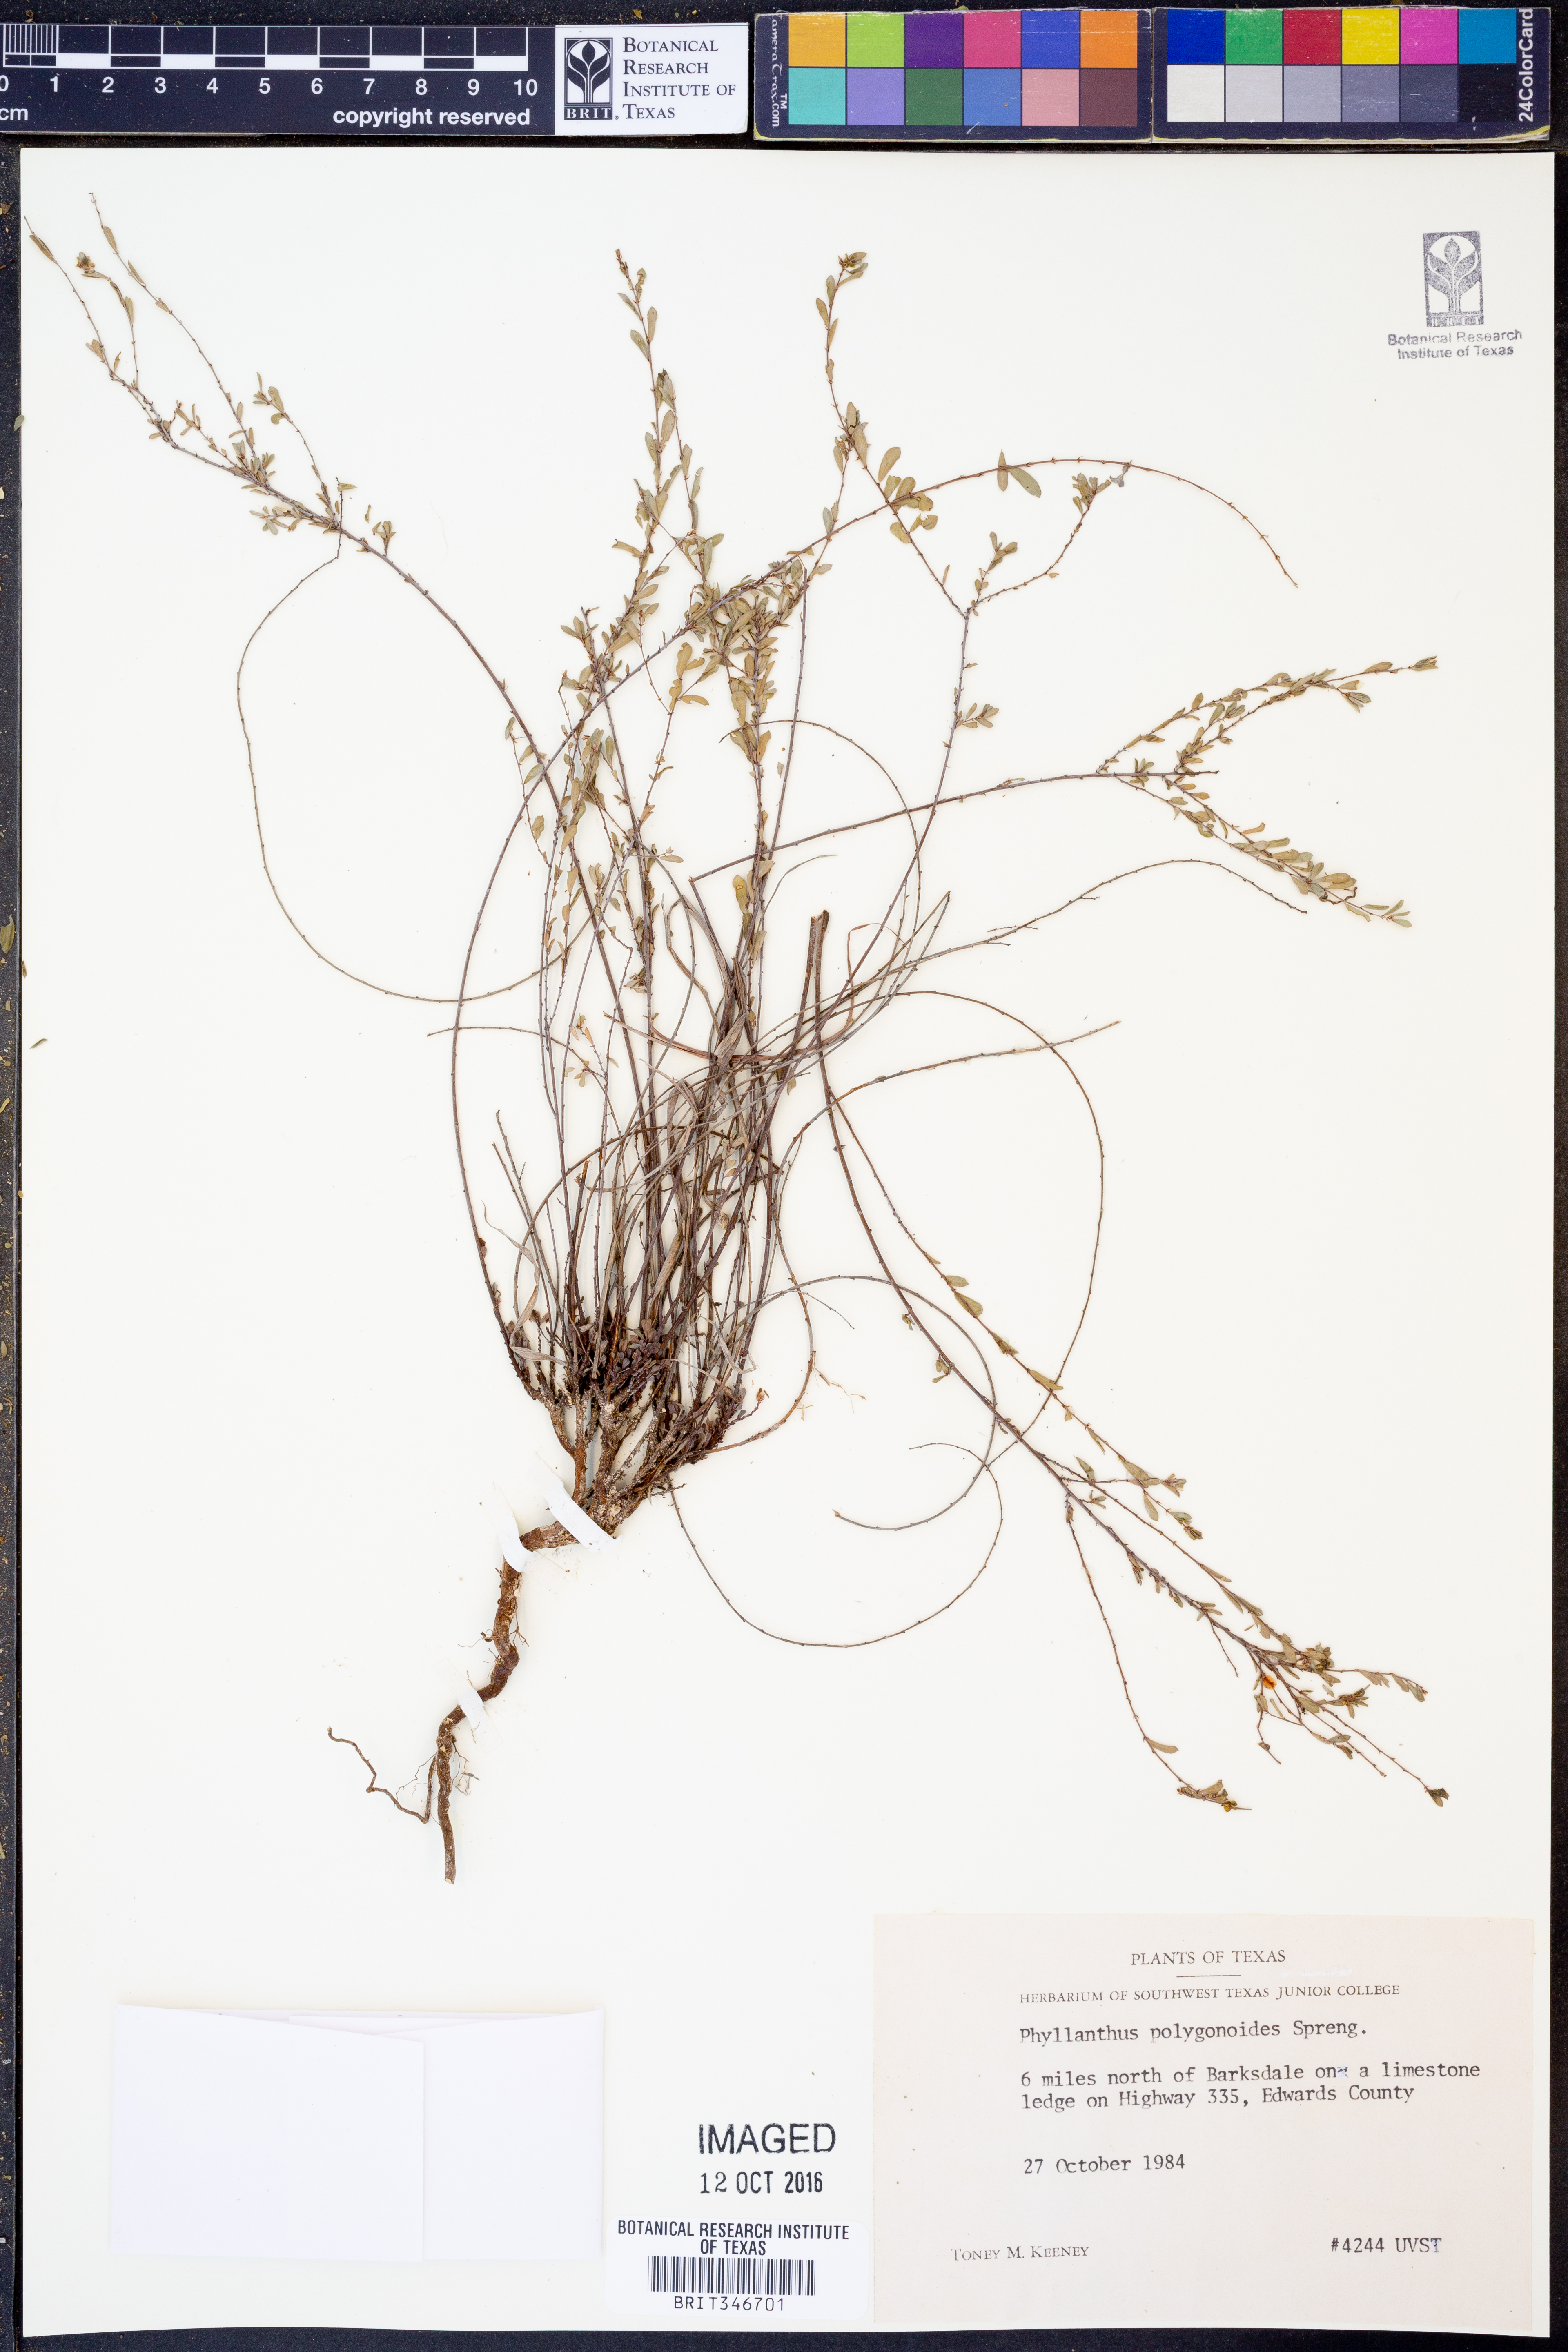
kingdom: Plantae
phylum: Tracheophyta
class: Magnoliopsida
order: Malpighiales
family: Phyllanthaceae
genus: Phyllanthus
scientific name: Phyllanthus polygonoides
